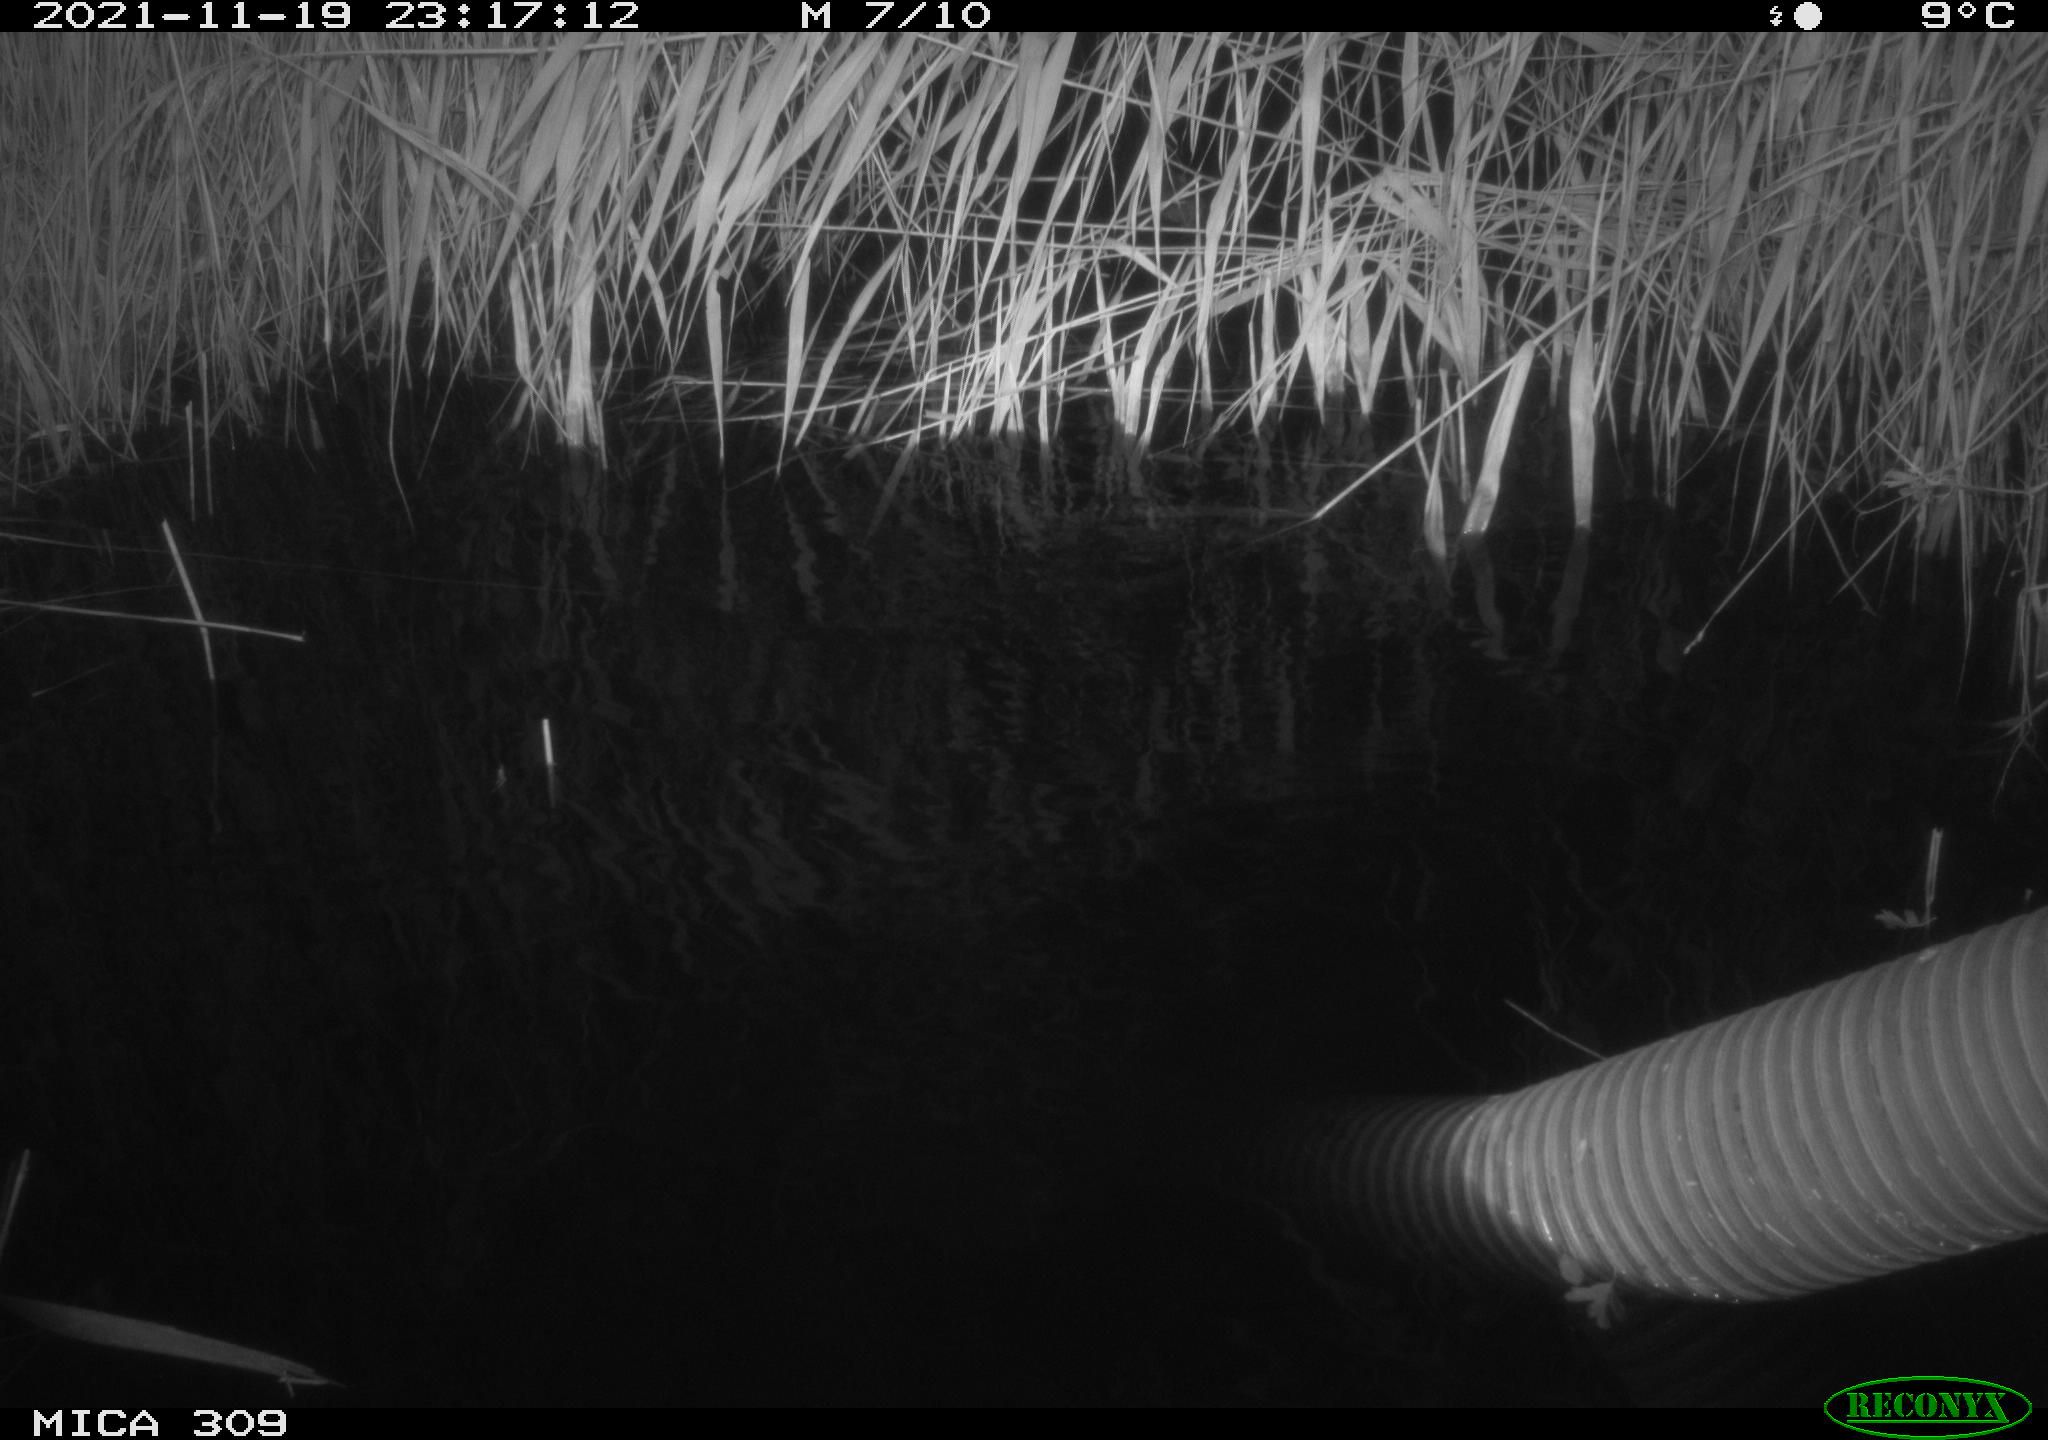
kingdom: Animalia
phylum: Chordata
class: Mammalia
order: Rodentia
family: Muridae
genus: Rattus
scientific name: Rattus norvegicus
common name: Brown rat
